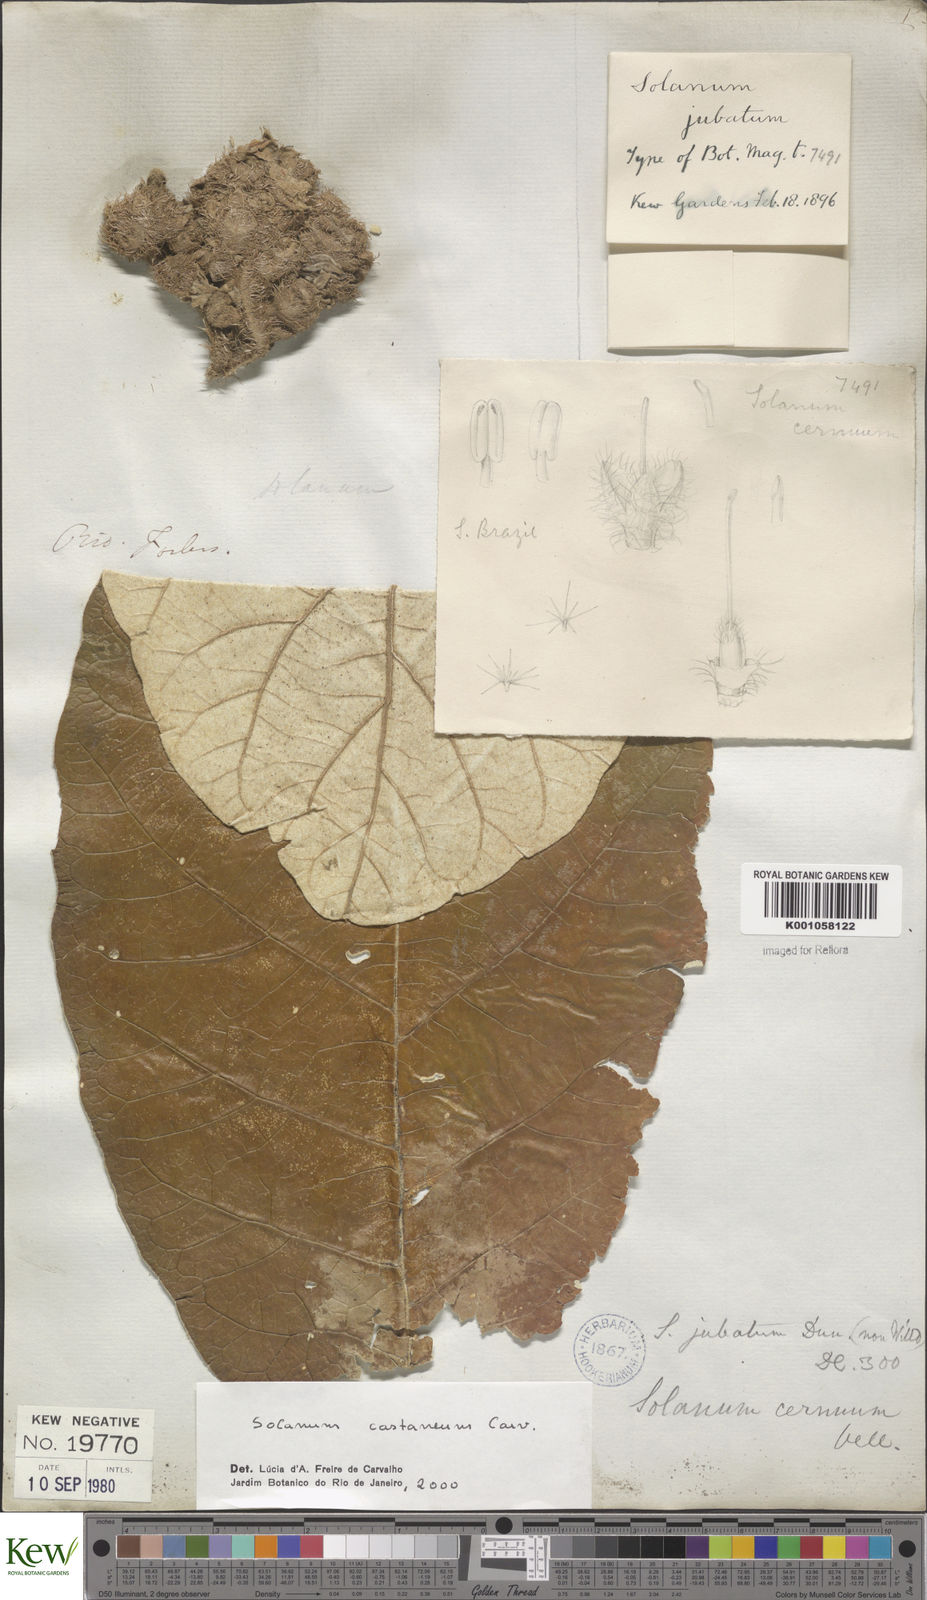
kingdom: Plantae
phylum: Tracheophyta
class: Magnoliopsida
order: Solanales
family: Solanaceae
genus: Solanum
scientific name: Solanum castaneum
